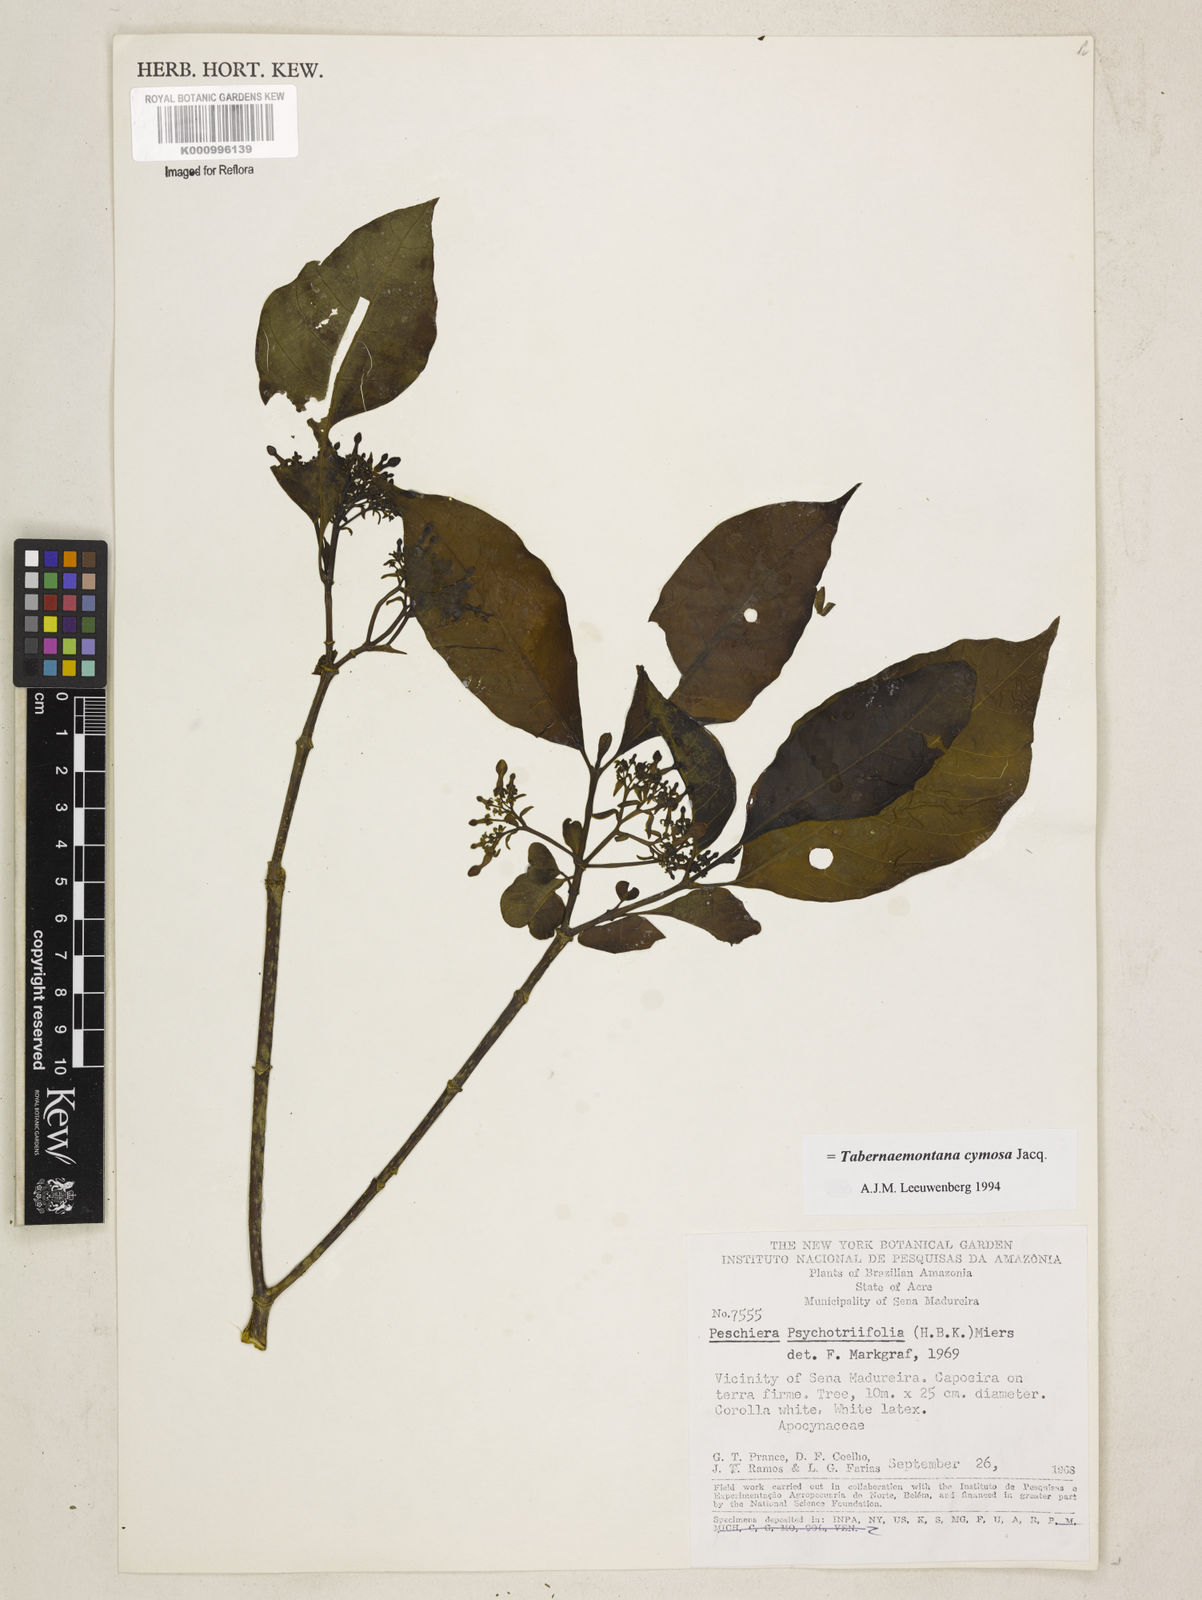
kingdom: Plantae
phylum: Tracheophyta
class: Magnoliopsida
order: Gentianales
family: Apocynaceae
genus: Tabernaemontana
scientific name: Tabernaemontana cymosa
